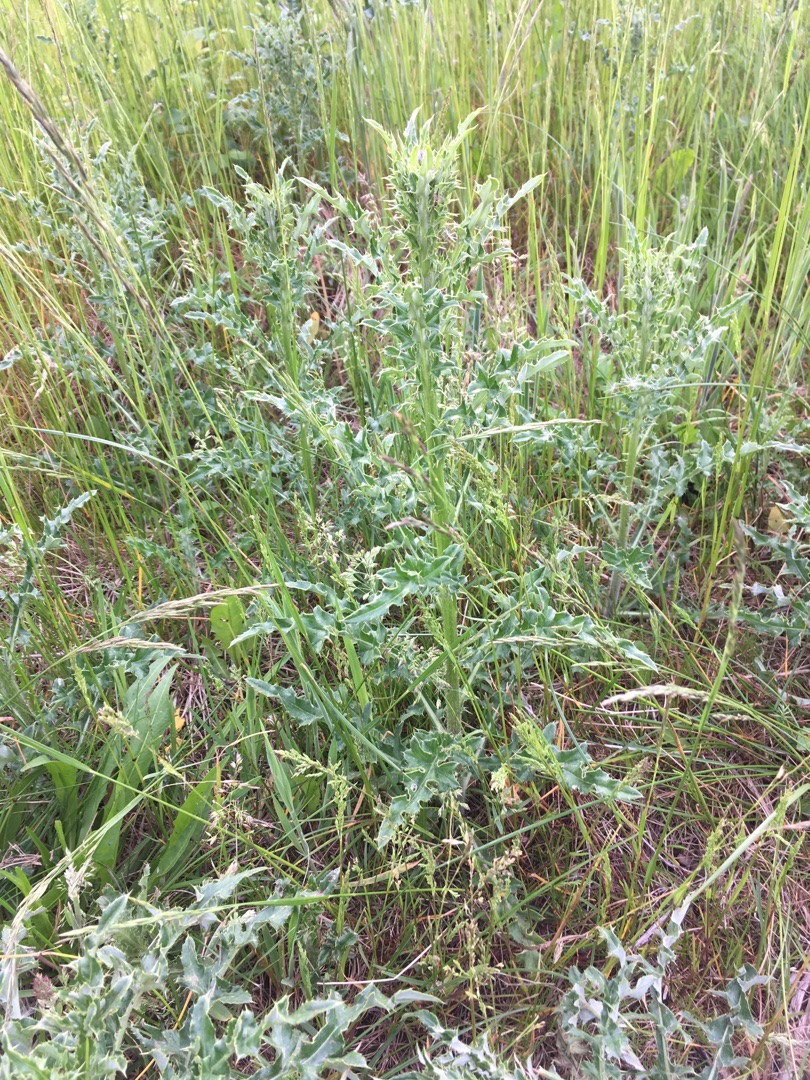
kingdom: Plantae
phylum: Tracheophyta
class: Magnoliopsida
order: Asterales
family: Asteraceae
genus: Cirsium
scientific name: Cirsium arvense
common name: Ager-tidsel
